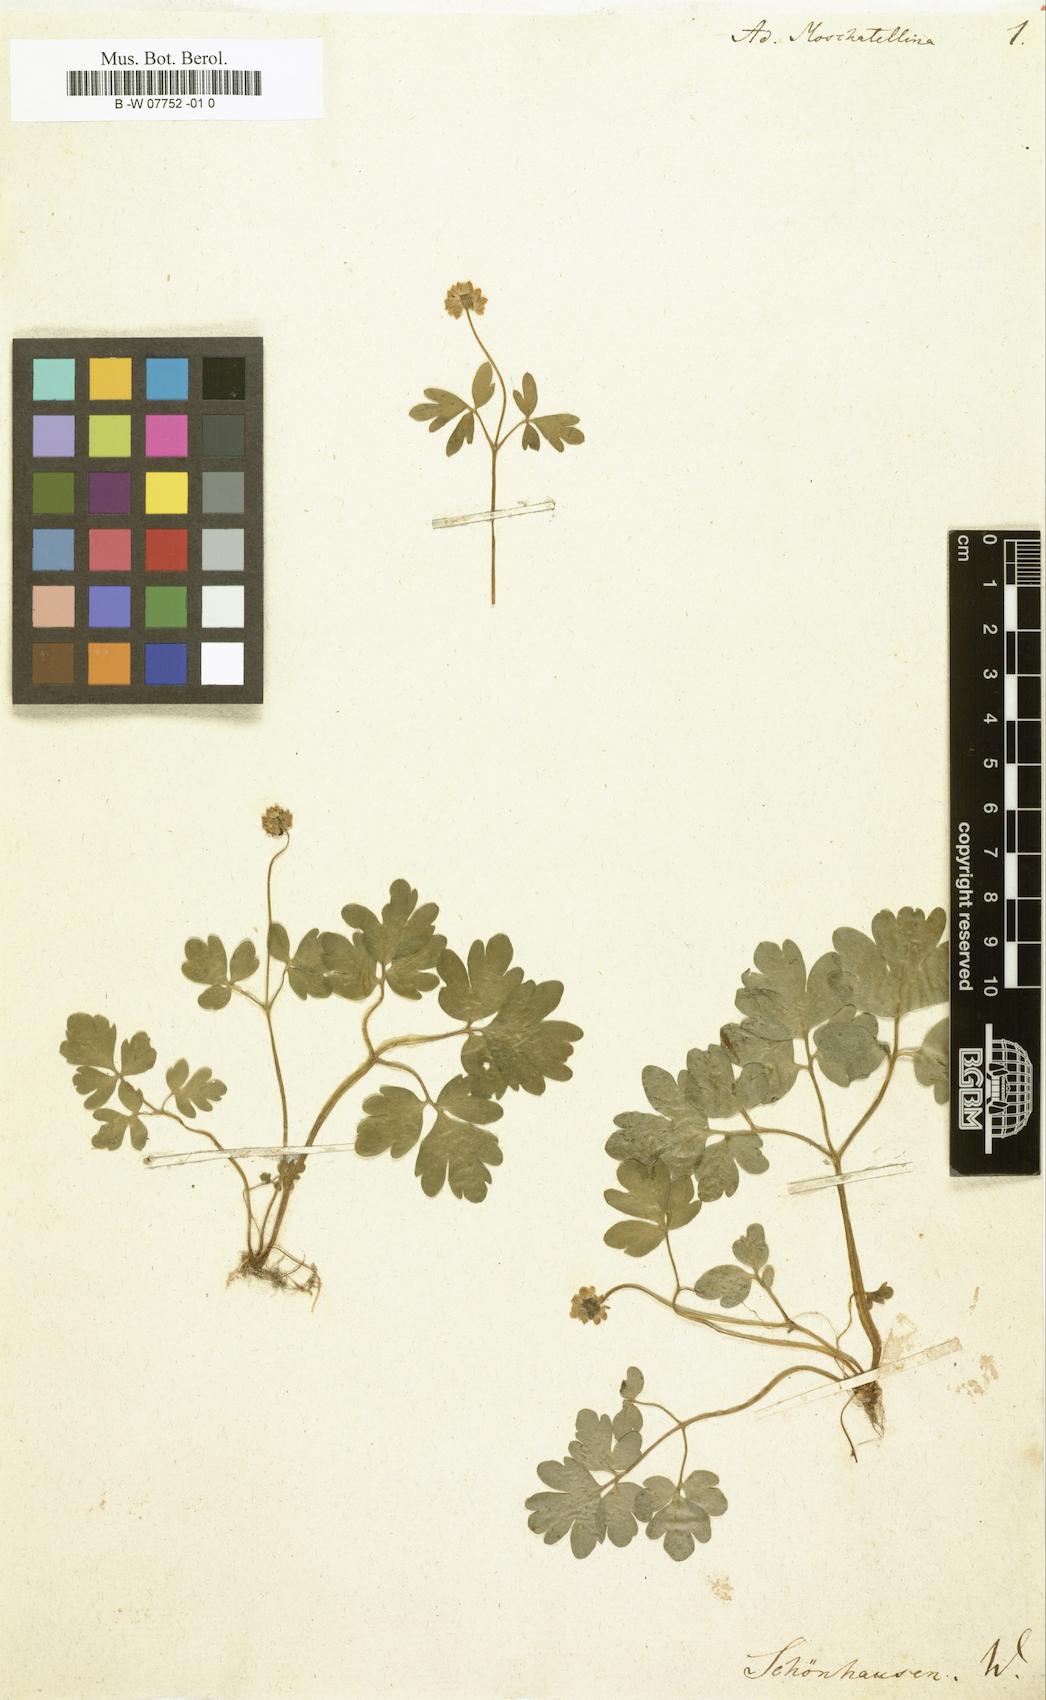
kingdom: Plantae
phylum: Tracheophyta
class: Magnoliopsida
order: Dipsacales
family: Viburnaceae
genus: Adoxa
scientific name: Adoxa moschatellina
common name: Moschatel
